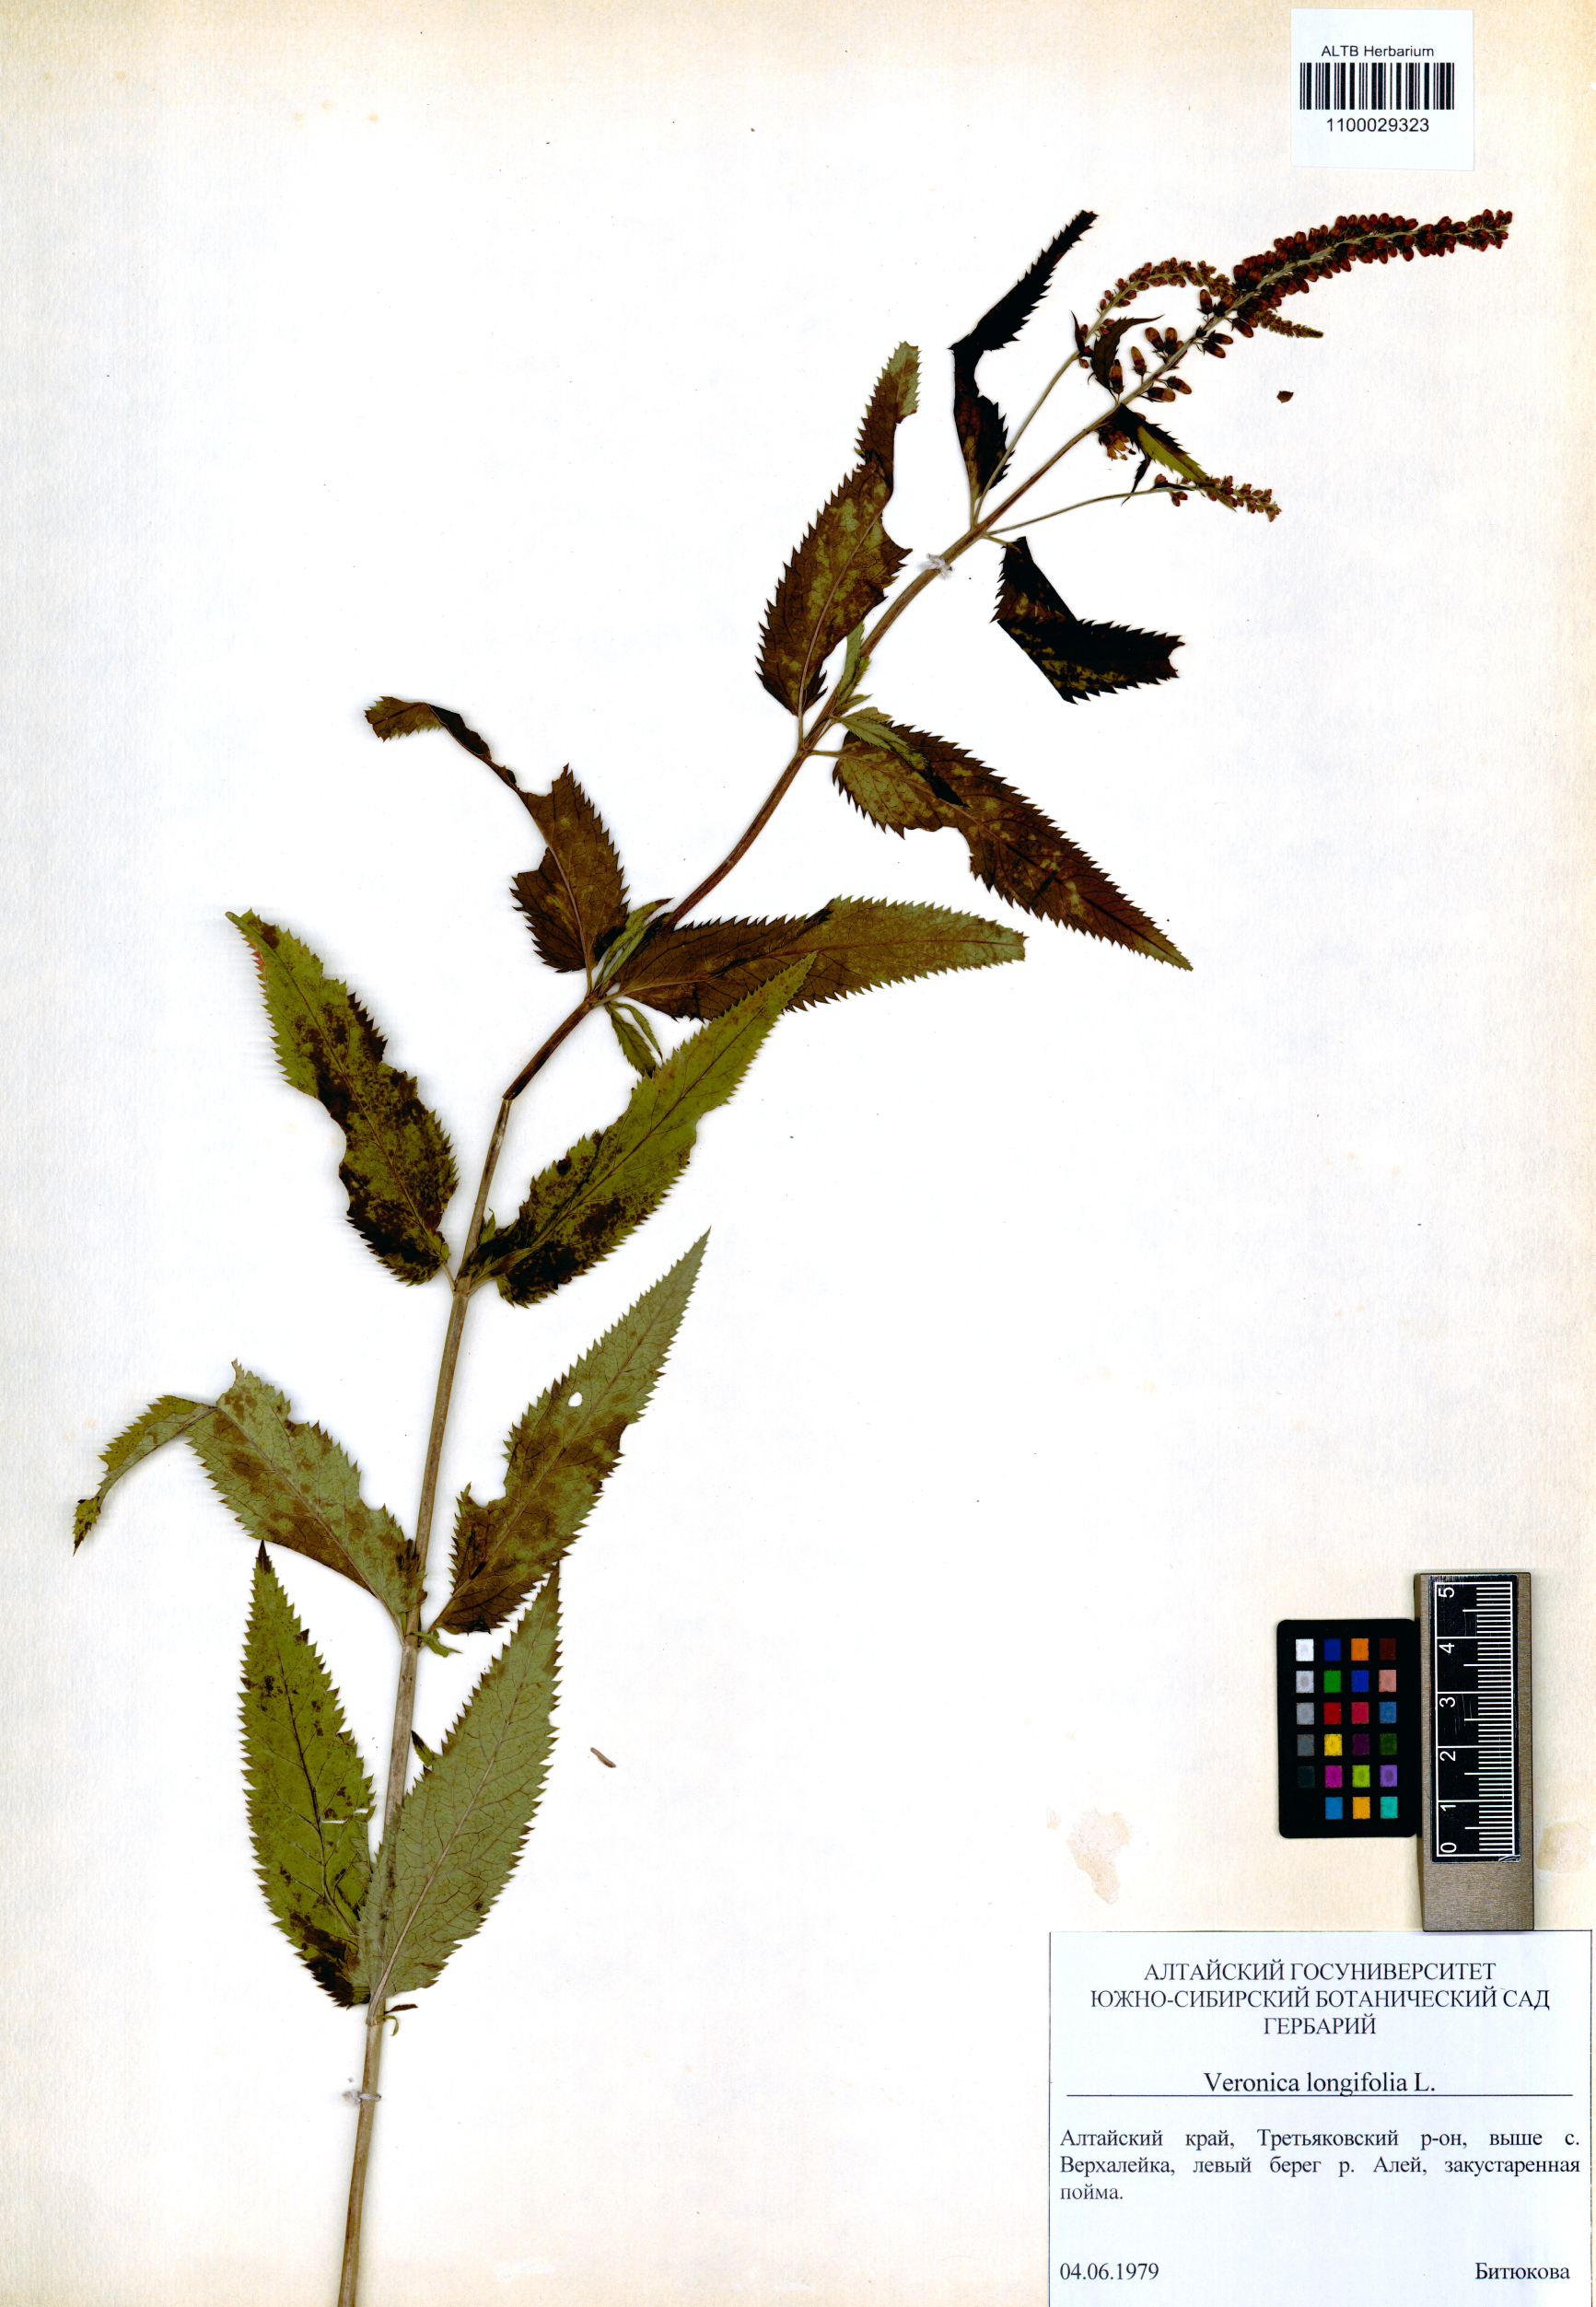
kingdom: Plantae
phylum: Tracheophyta
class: Magnoliopsida
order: Lamiales
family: Plantaginaceae
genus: Veronica
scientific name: Veronica longifolia
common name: Garden speedwell
